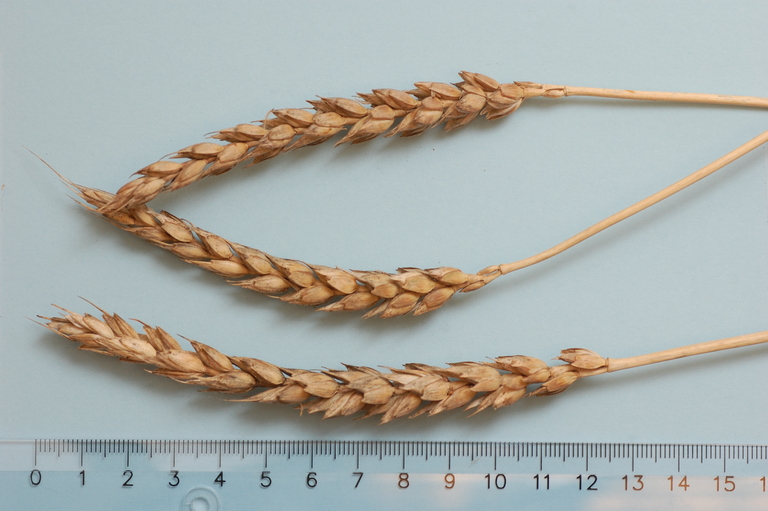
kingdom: Plantae
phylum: Tracheophyta
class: Liliopsida
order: Poales
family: Poaceae
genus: Triticum
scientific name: Triticum aestivum
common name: Common wheat
